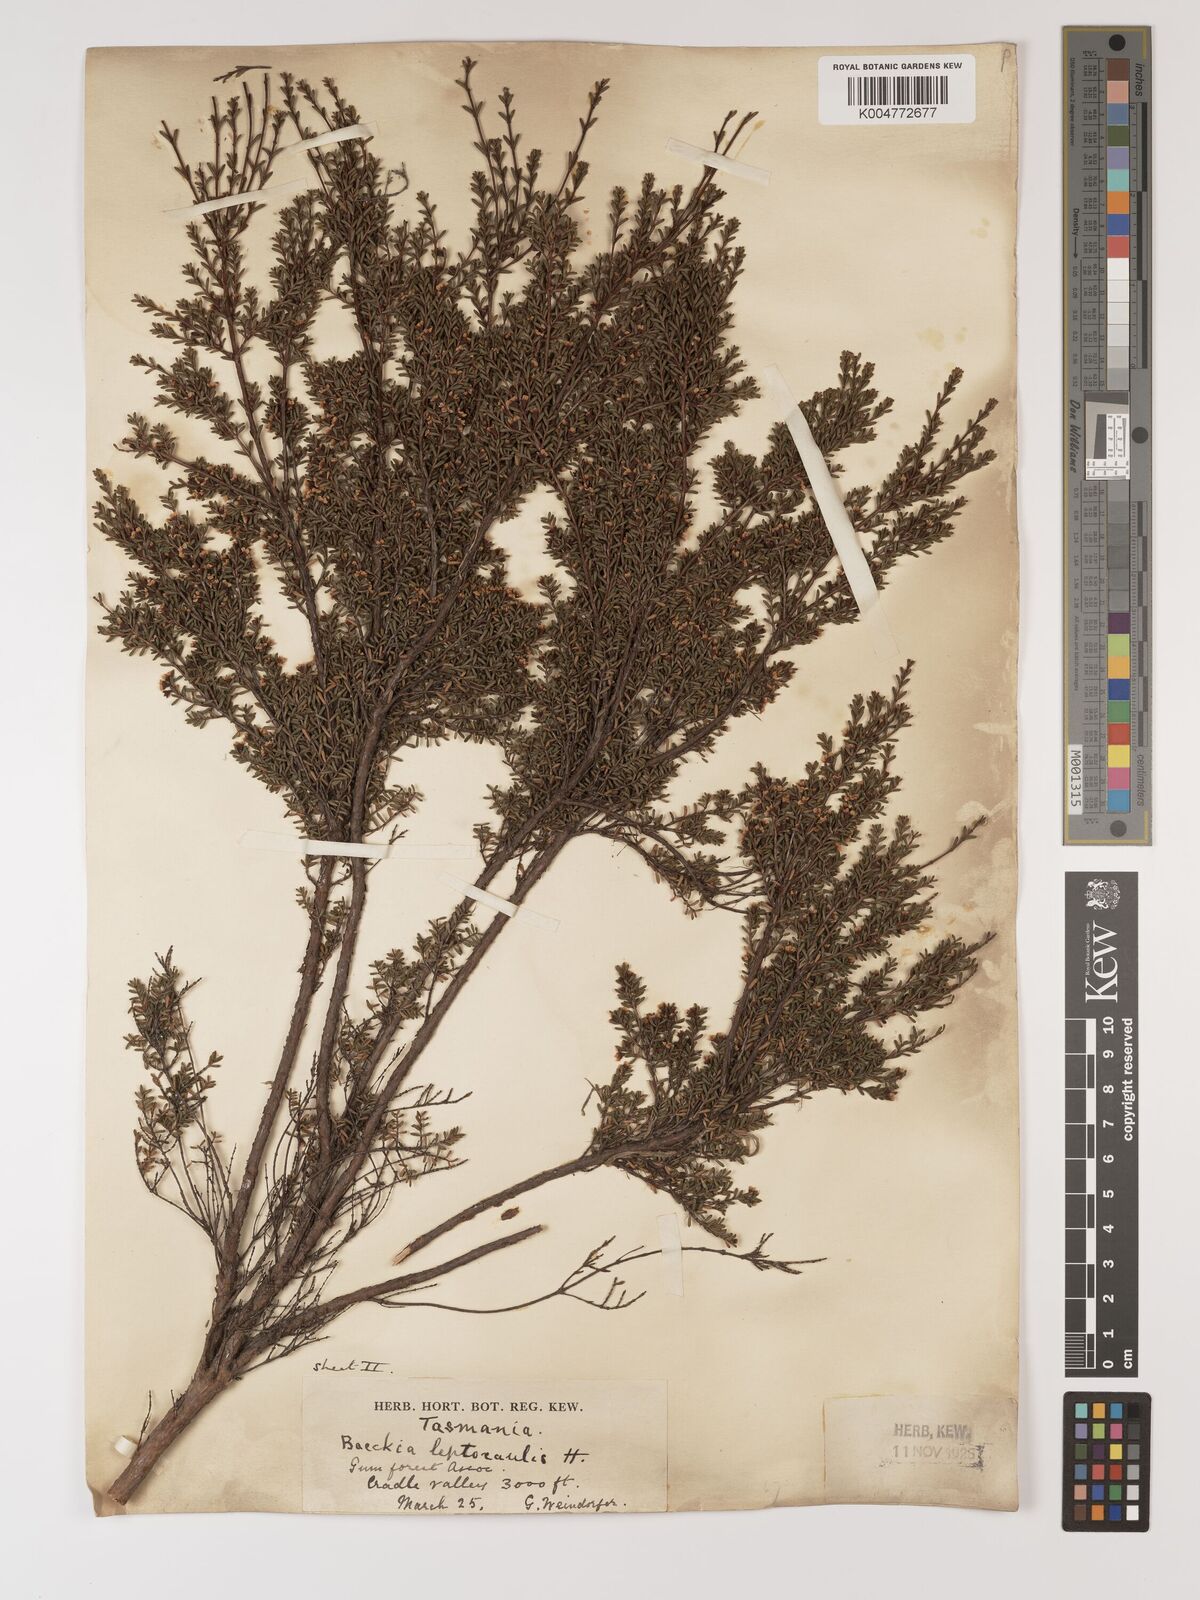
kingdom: Plantae
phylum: Tracheophyta
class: Magnoliopsida
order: Myrtales
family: Myrtaceae
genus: Baeckea
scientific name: Baeckea gunniana
